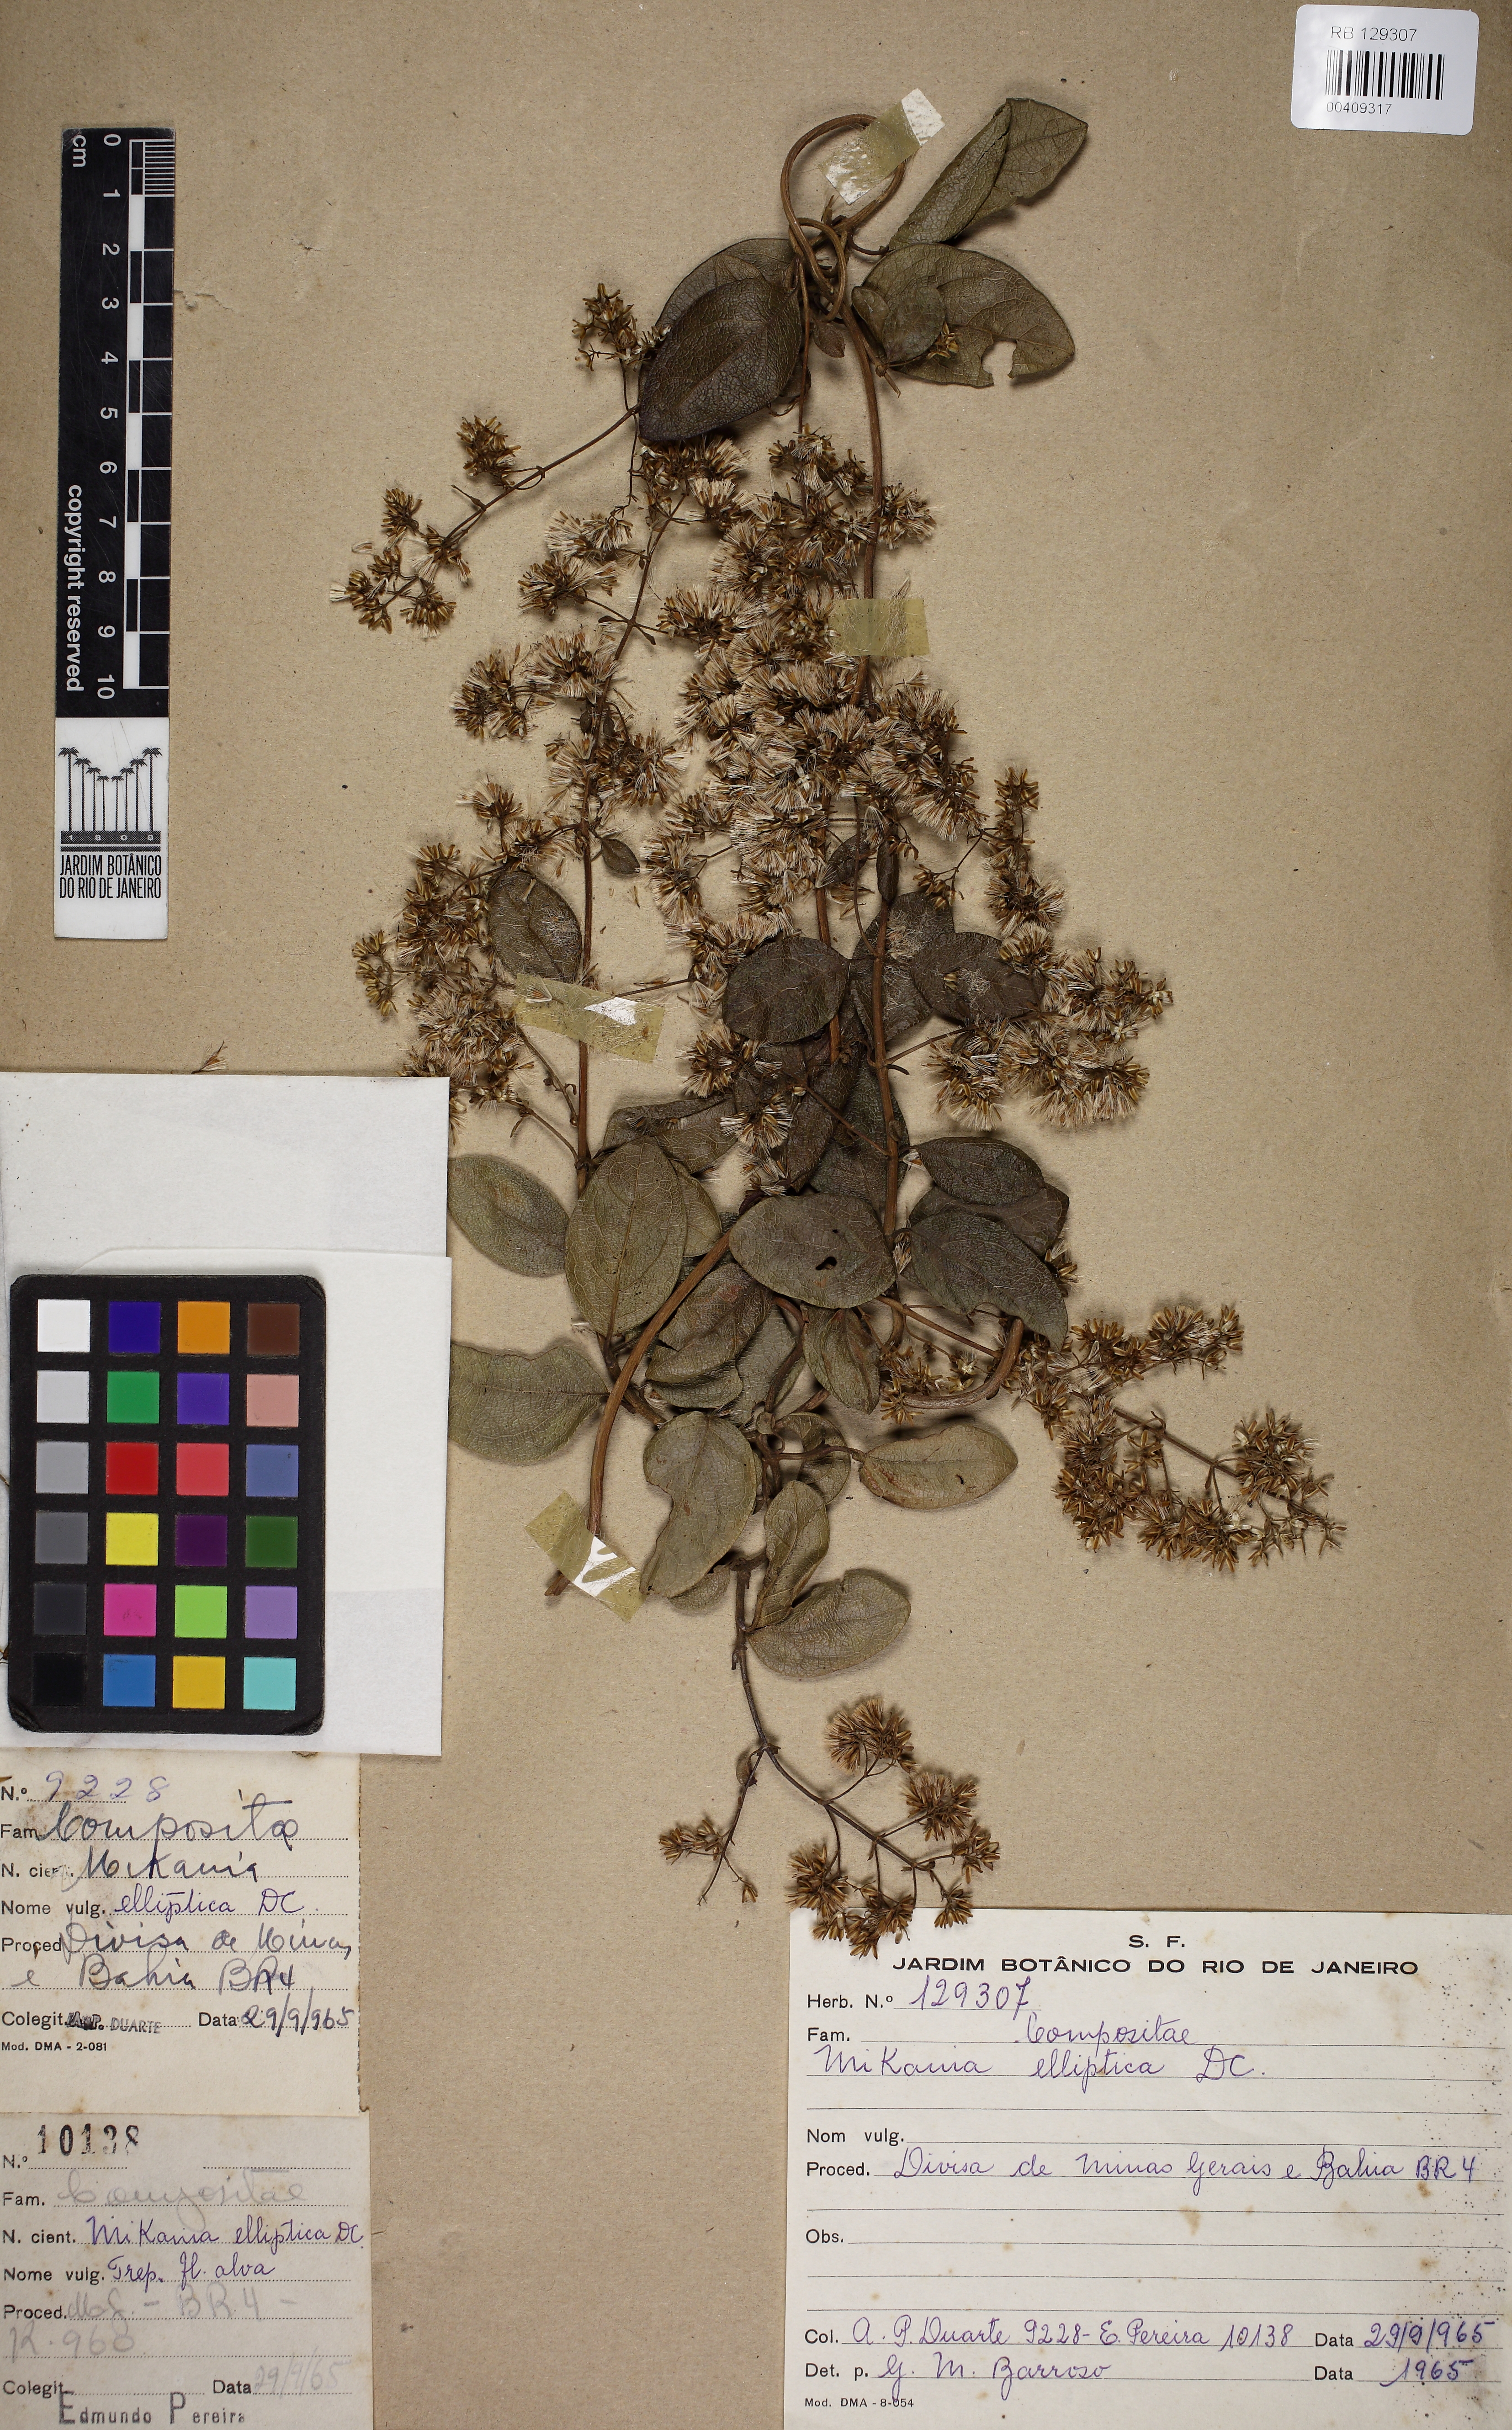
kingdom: Plantae
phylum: Tracheophyta
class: Magnoliopsida
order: Asterales
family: Asteraceae
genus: Mikania
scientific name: Mikania elliptica
